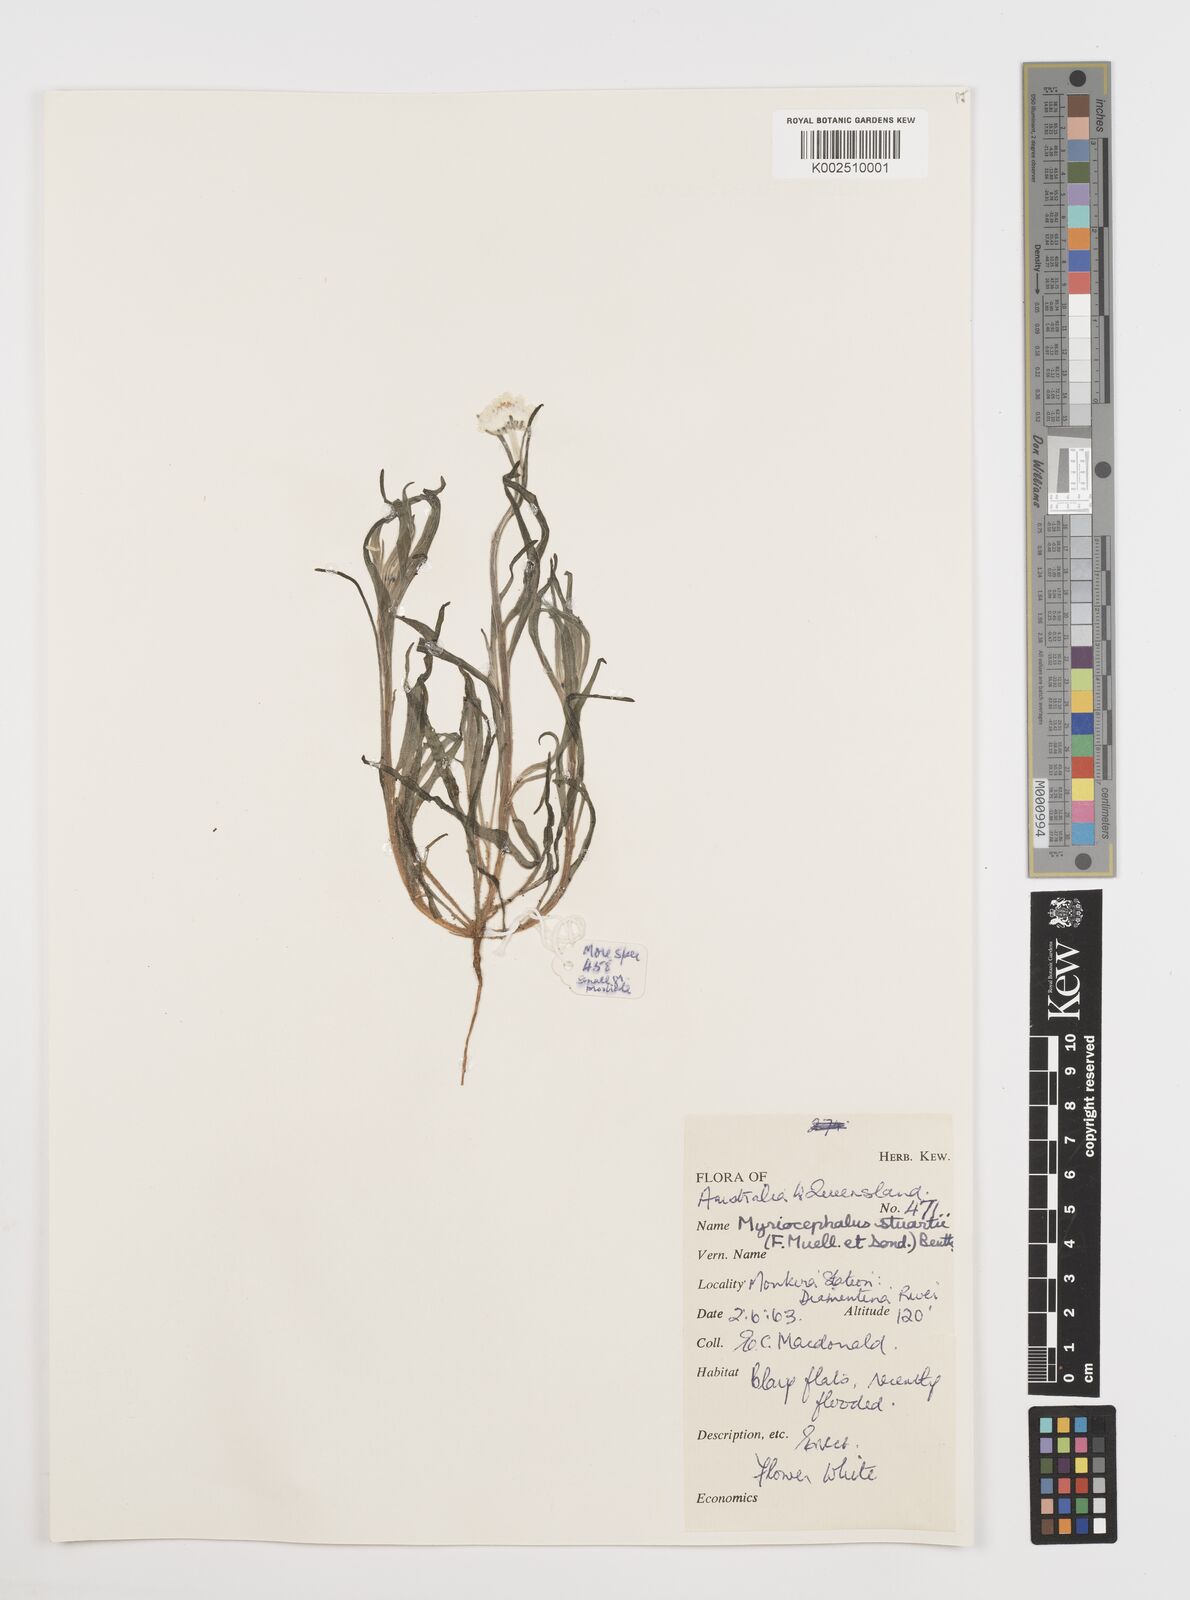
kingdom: Plantae
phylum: Tracheophyta
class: Magnoliopsida
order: Asterales
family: Asteraceae
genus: Polycalymma
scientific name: Polycalymma stuartii
